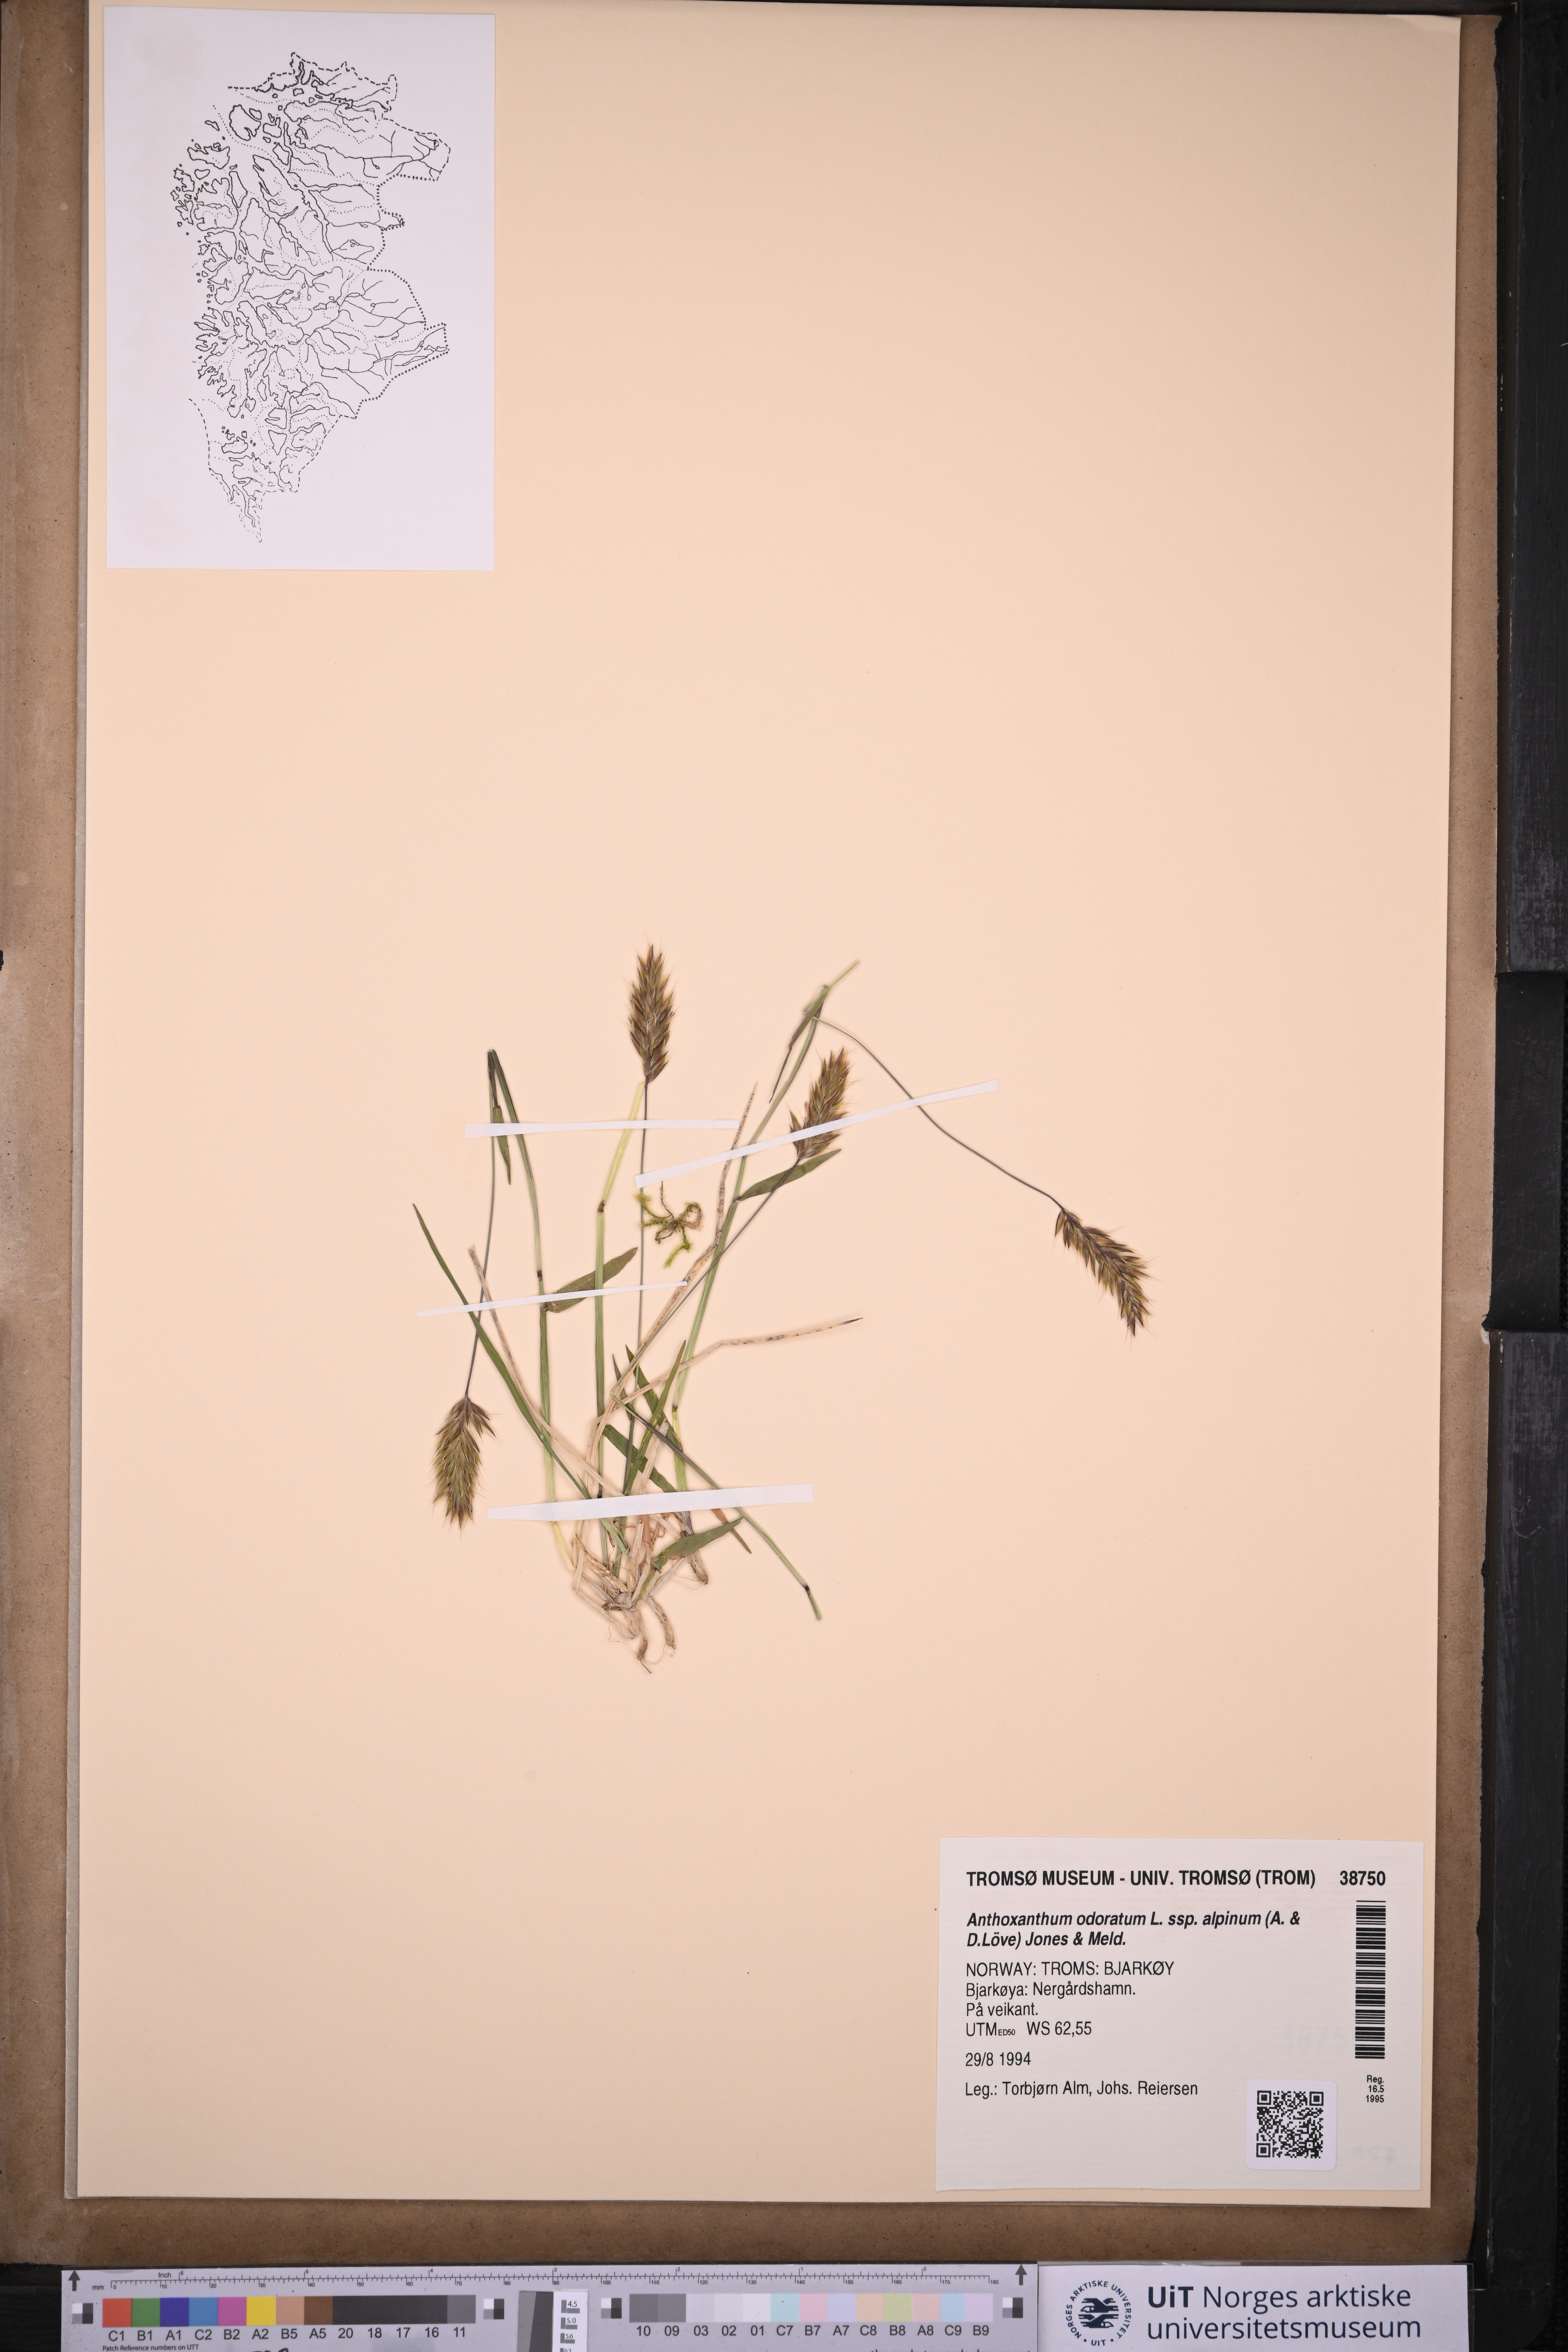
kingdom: Plantae
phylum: Tracheophyta
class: Liliopsida
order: Poales
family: Poaceae
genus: Anthoxanthum
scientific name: Anthoxanthum nipponicum
